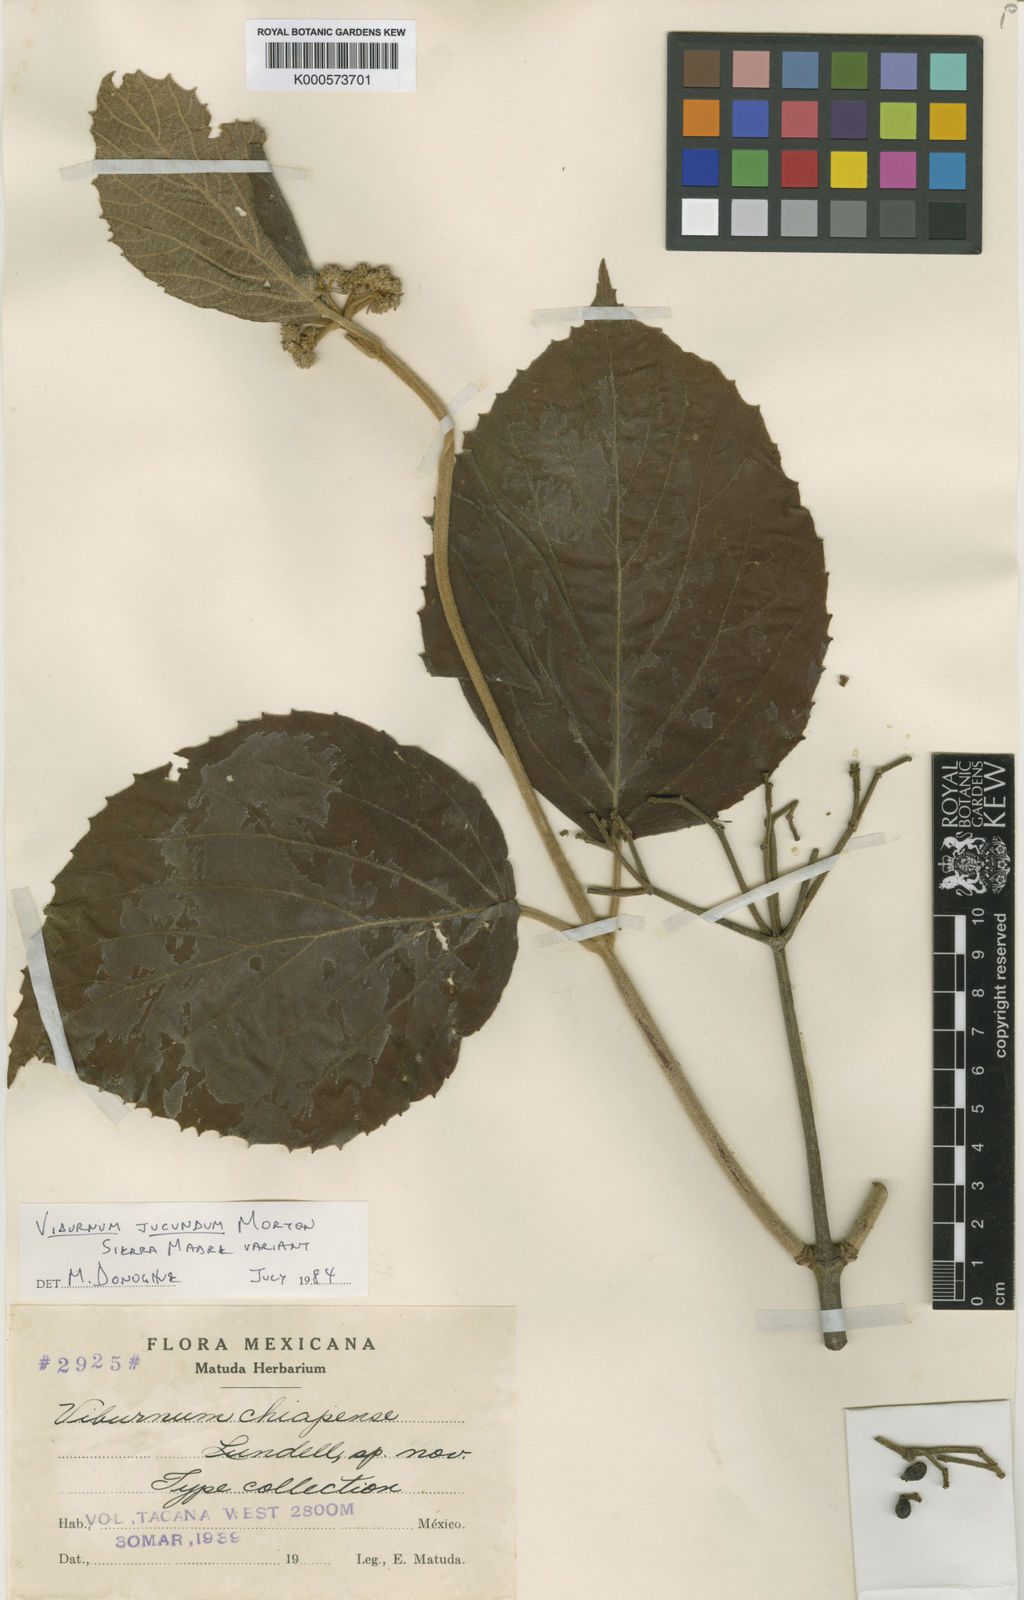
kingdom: Plantae
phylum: Tracheophyta
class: Magnoliopsida
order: Dipsacales
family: Viburnaceae
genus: Viburnum
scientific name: Viburnum jucundum
